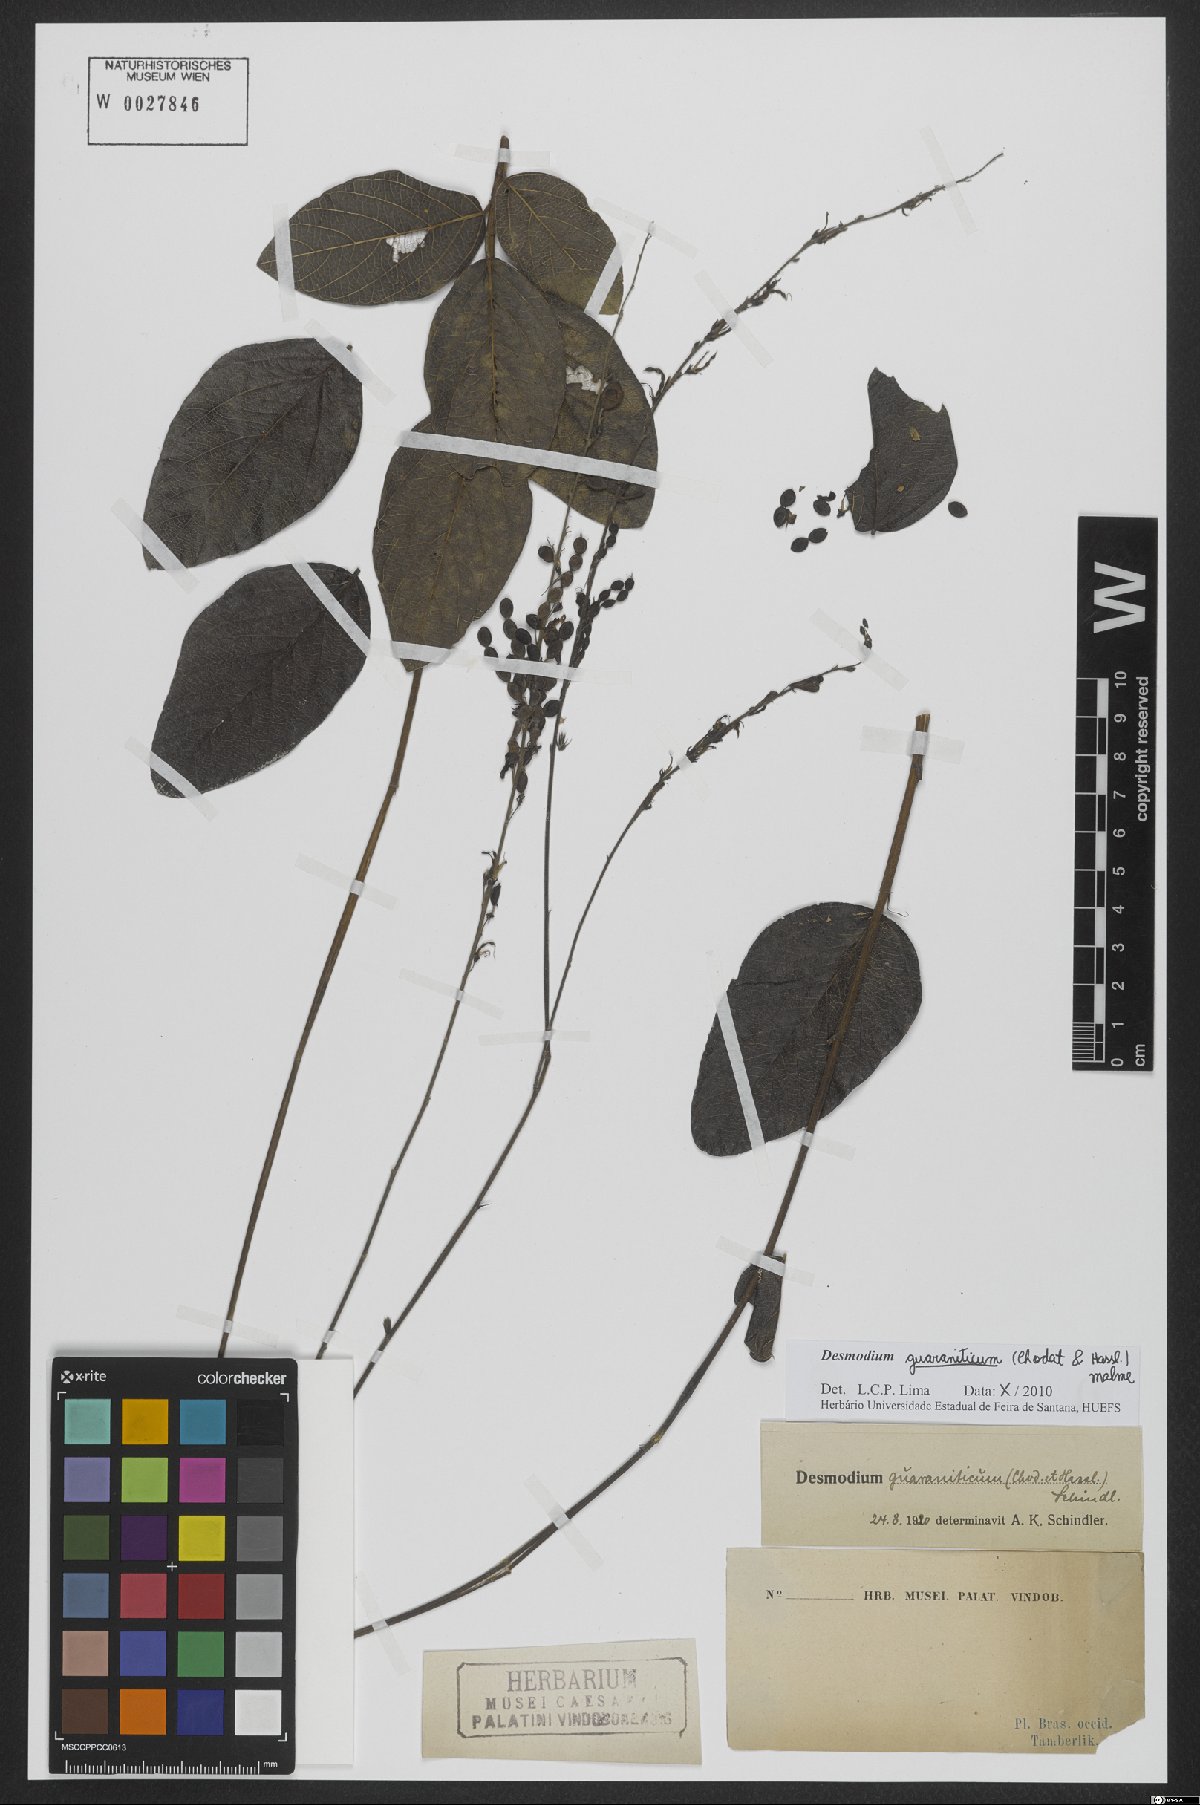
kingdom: Plantae
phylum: Tracheophyta
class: Magnoliopsida
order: Fabales
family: Fabaceae
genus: Desmodium
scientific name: Desmodium guaraniticum
